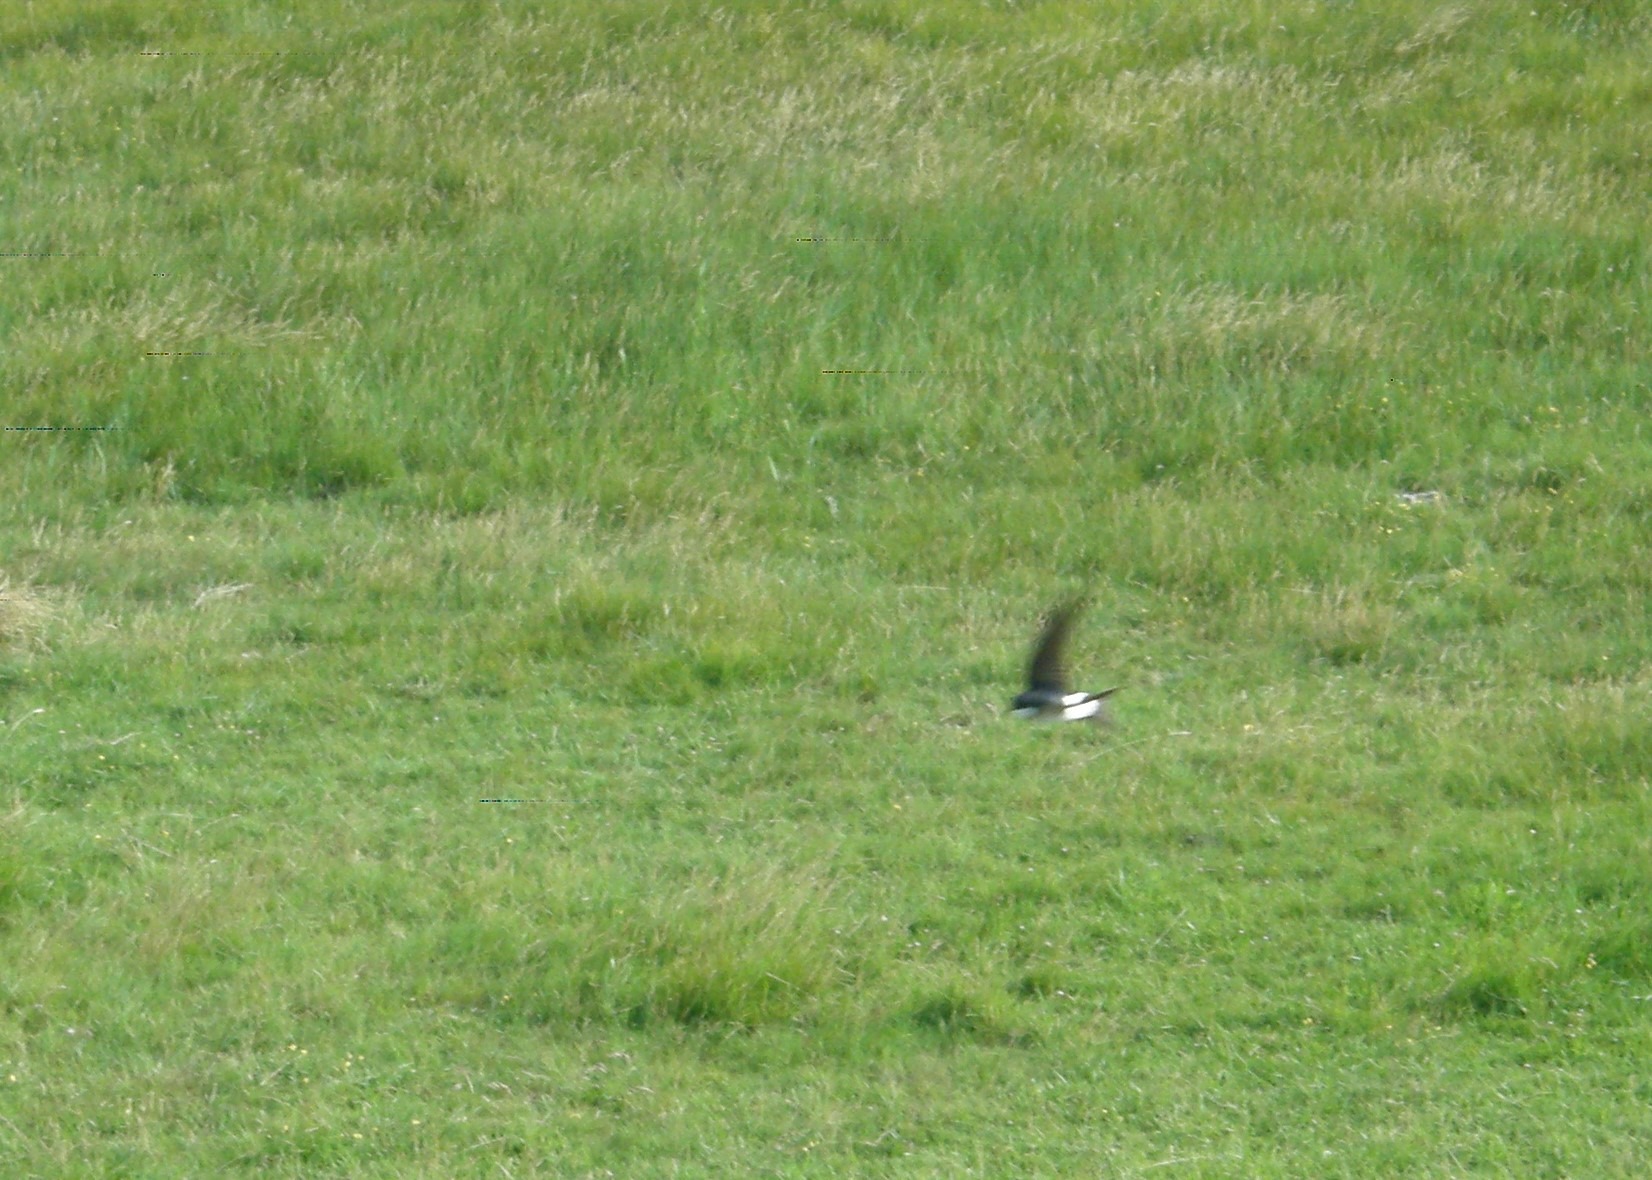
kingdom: Animalia
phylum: Chordata
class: Aves
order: Passeriformes
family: Hirundinidae
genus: Delichon
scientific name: Delichon urbicum
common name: Bysvale
